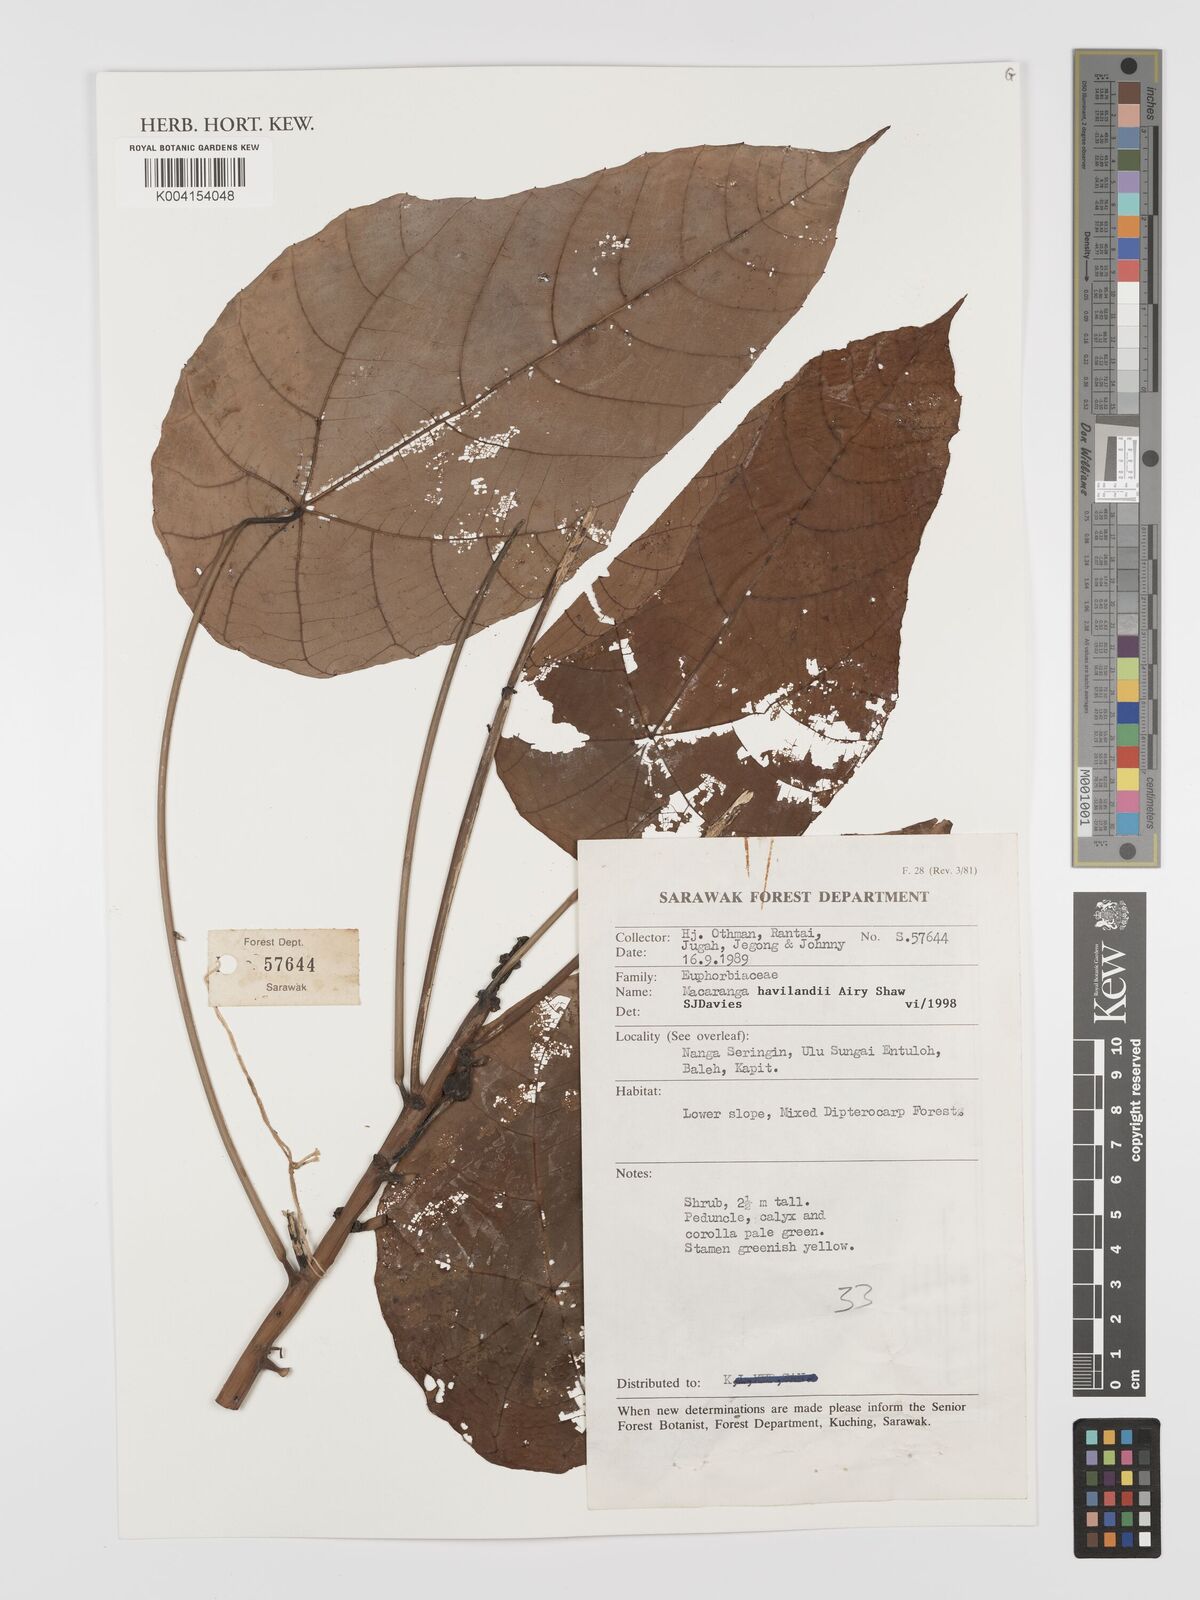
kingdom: Plantae
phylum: Tracheophyta
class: Magnoliopsida
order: Malpighiales
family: Euphorbiaceae
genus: Macaranga
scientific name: Macaranga havilandii
